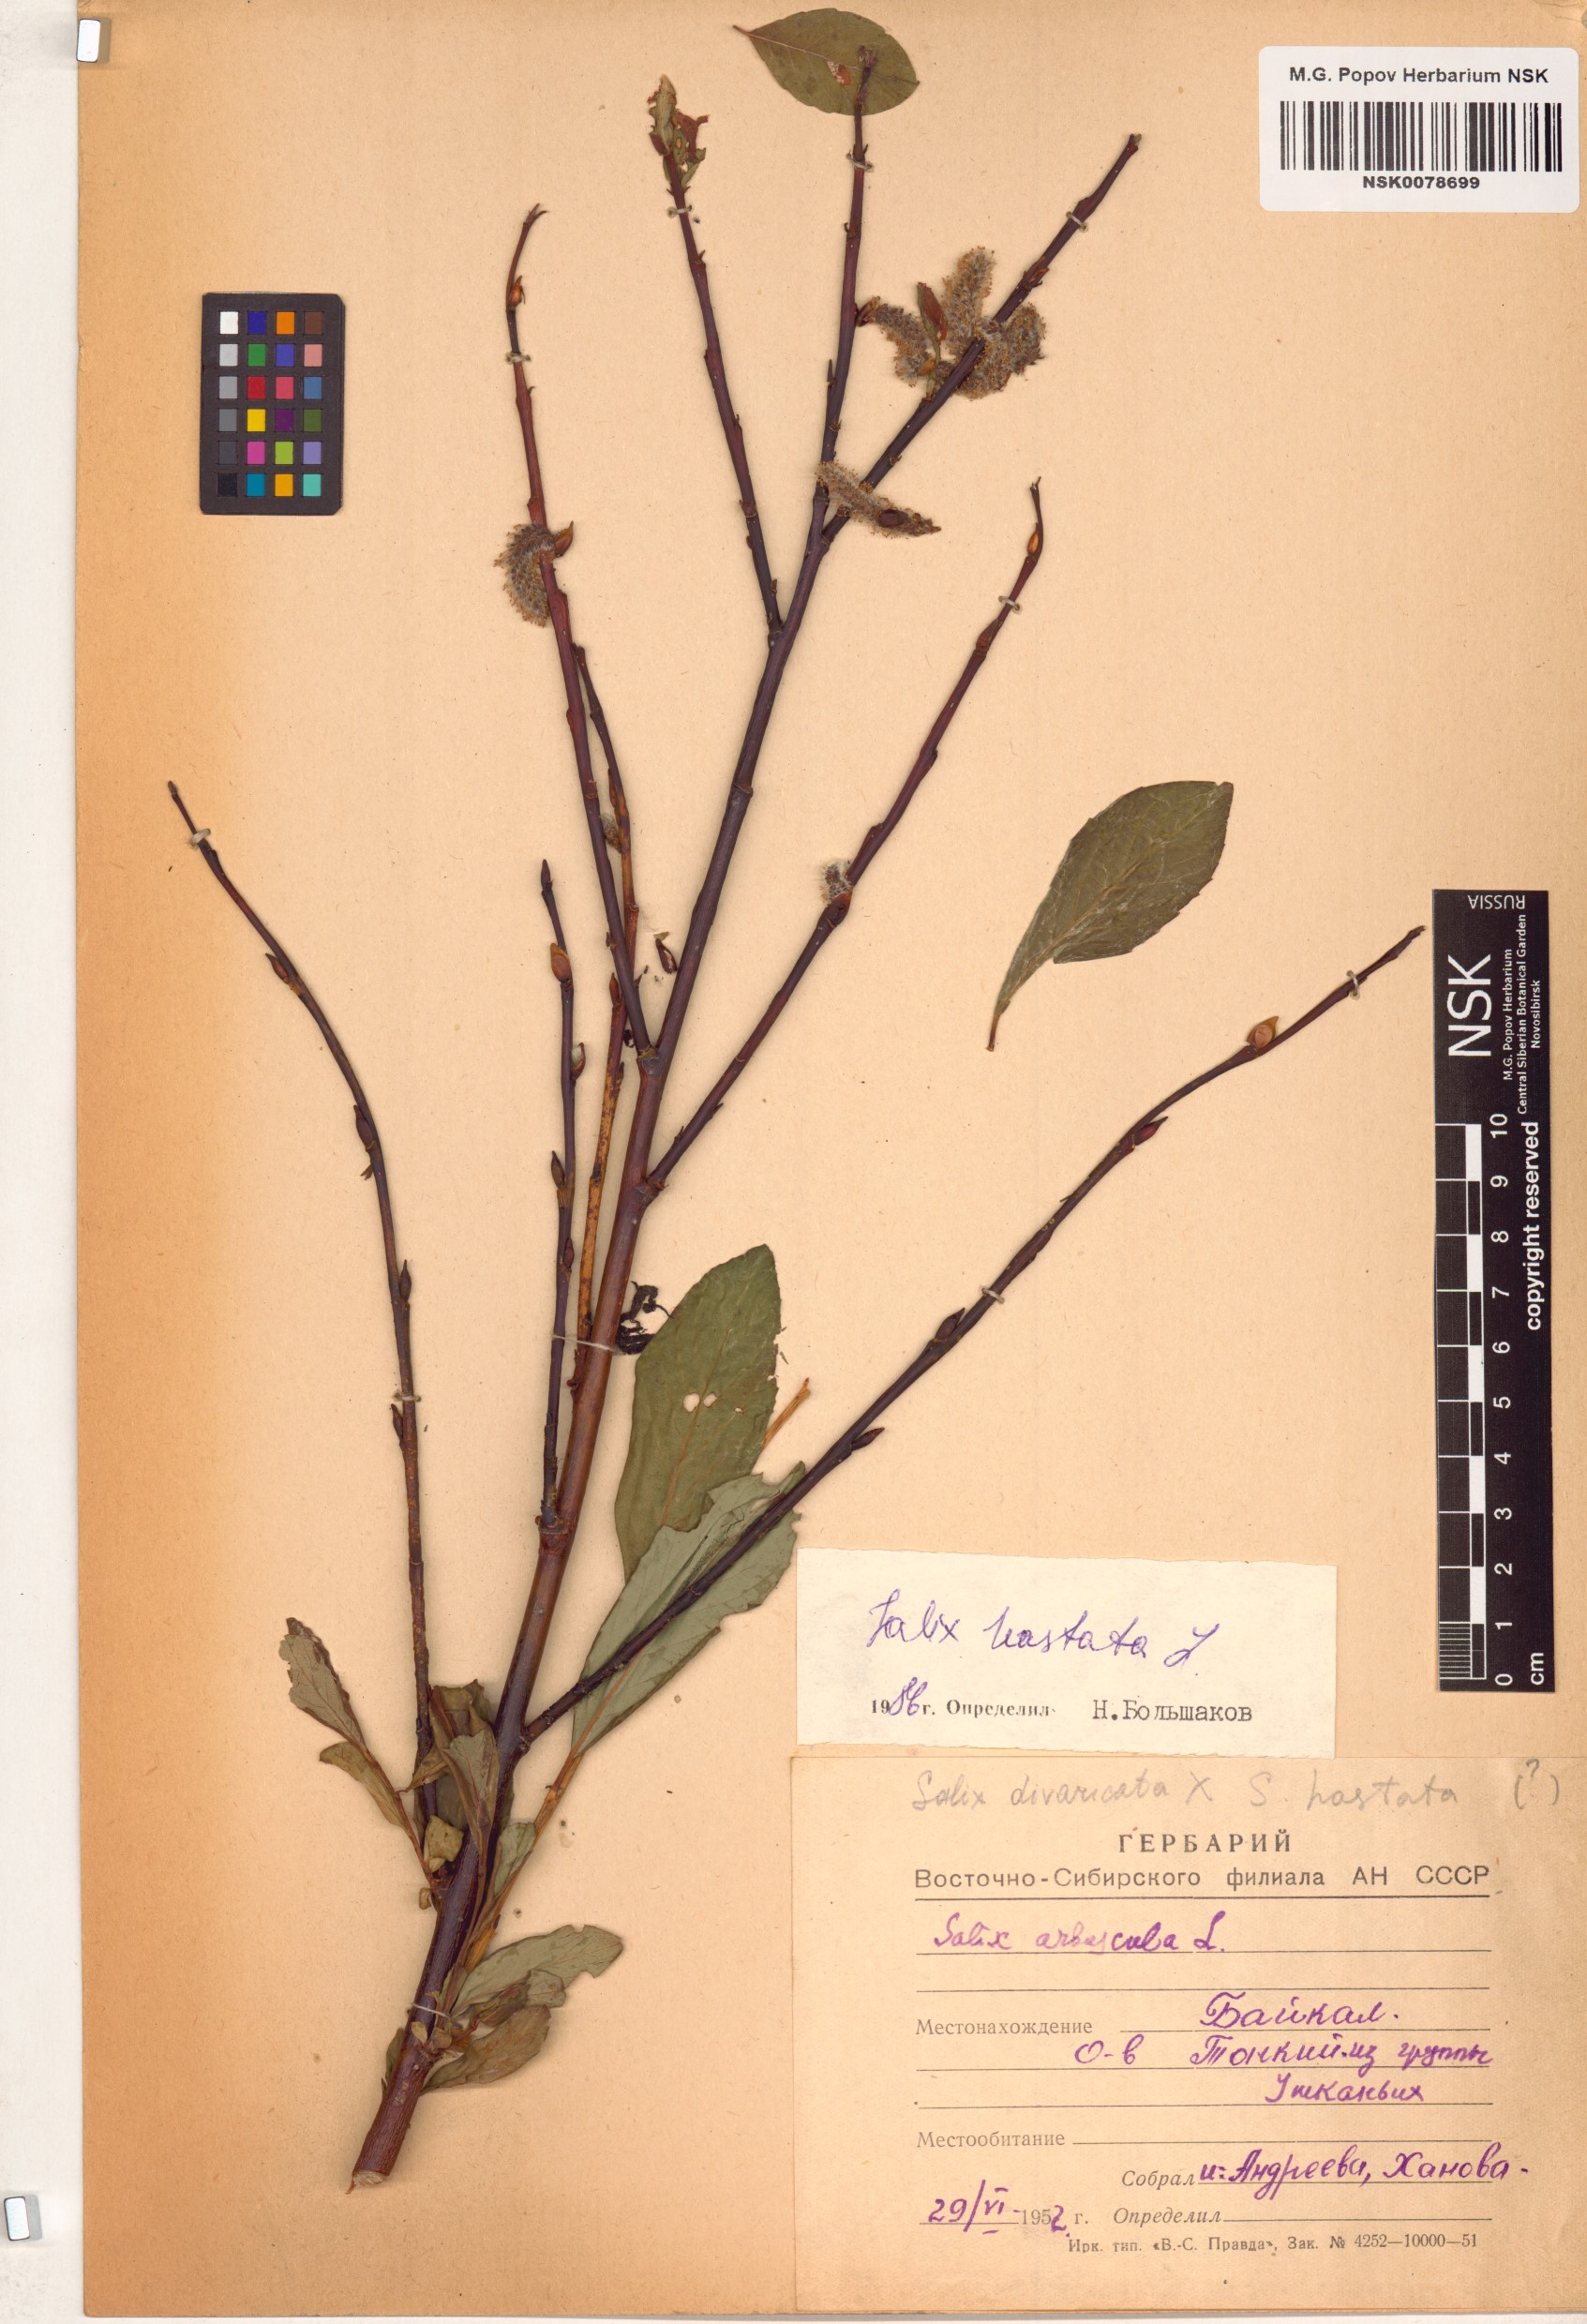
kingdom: Plantae
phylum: Tracheophyta
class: Magnoliopsida
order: Malpighiales
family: Salicaceae
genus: Salix
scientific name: Salix hastata
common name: Halberd willow
